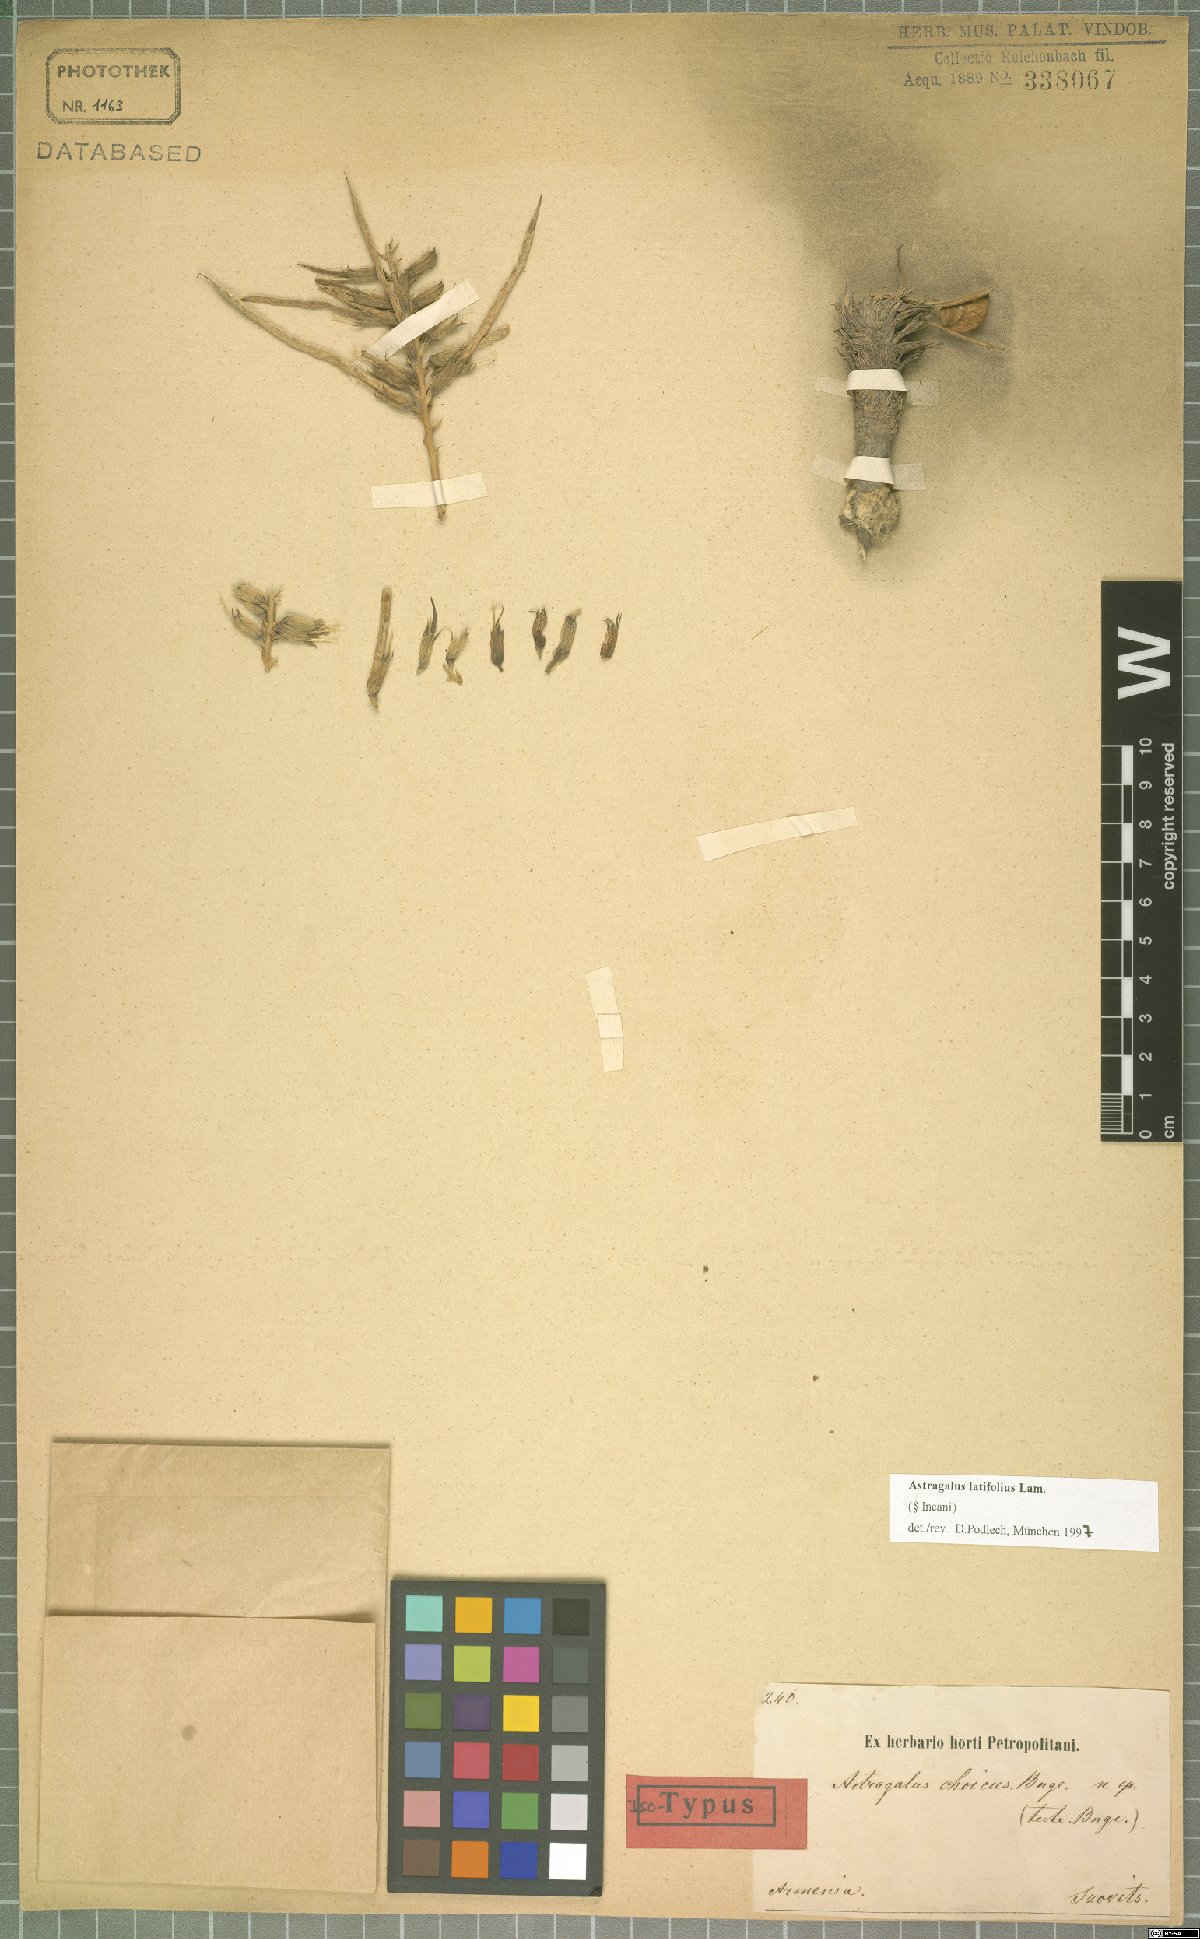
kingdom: Plantae
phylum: Tracheophyta
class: Magnoliopsida
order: Fabales
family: Fabaceae
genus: Astragalus
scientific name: Astragalus latifolius
